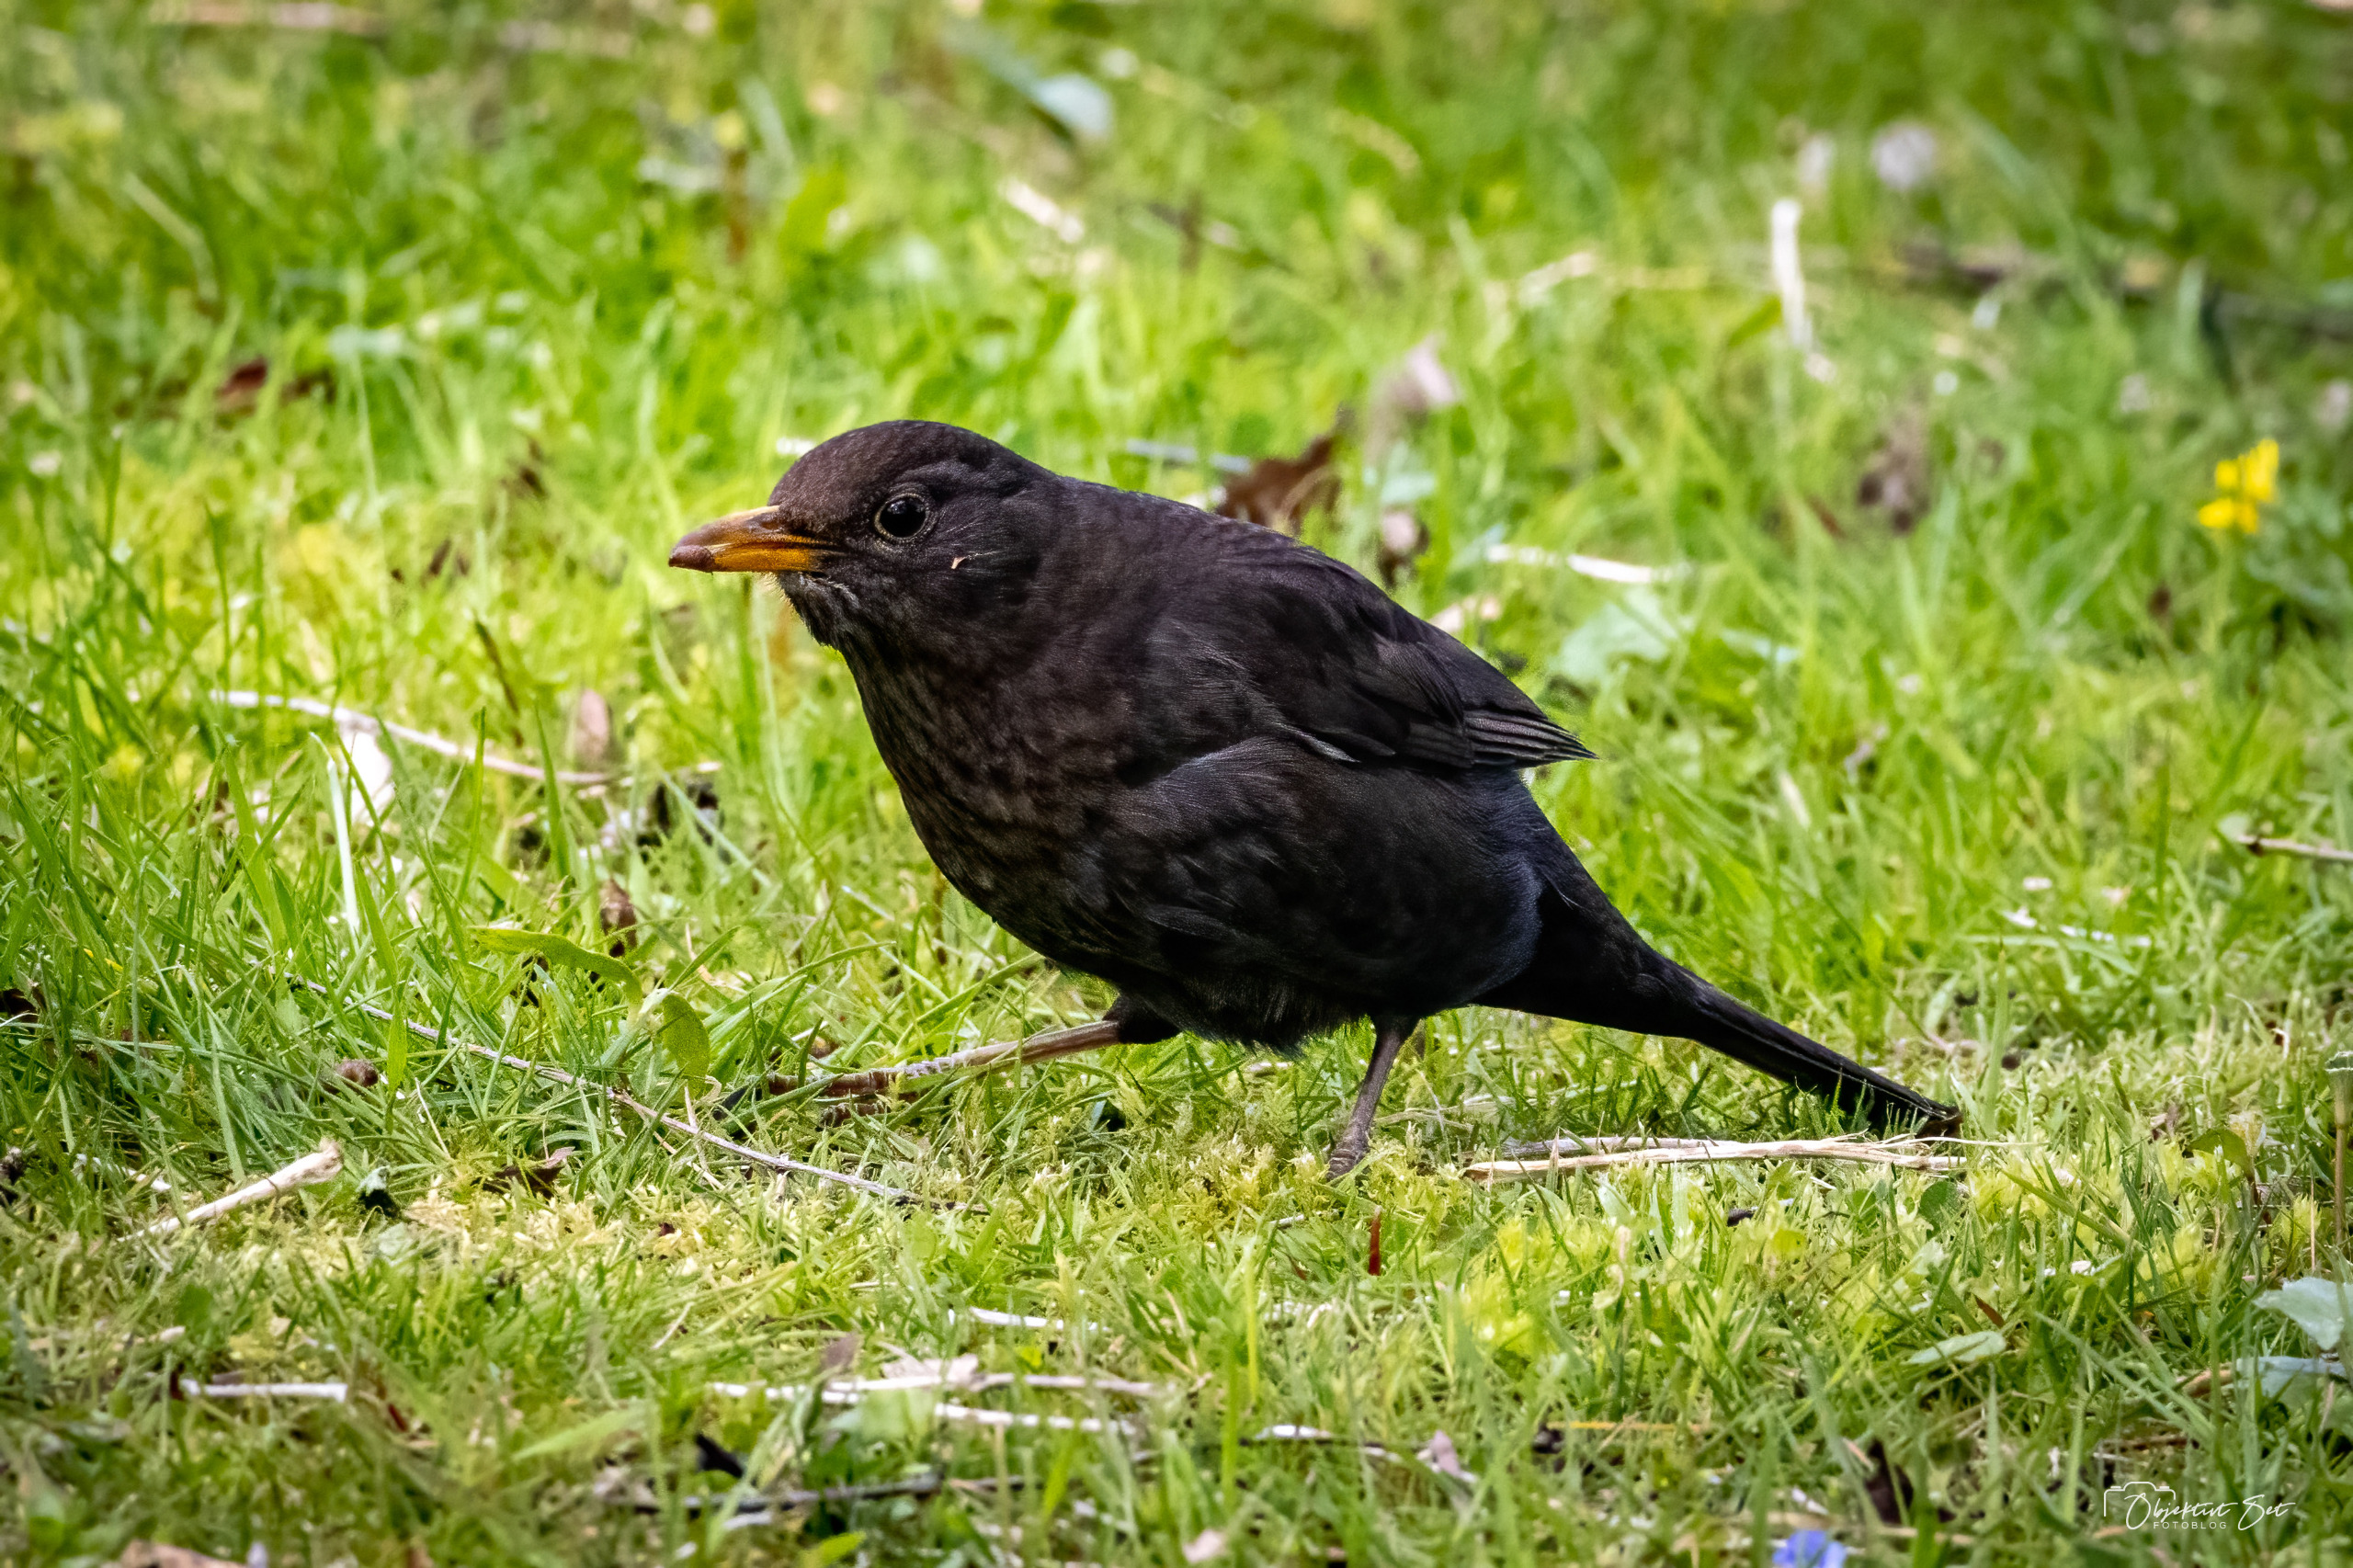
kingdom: Animalia
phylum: Chordata
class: Aves
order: Passeriformes
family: Turdidae
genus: Turdus
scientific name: Turdus merula
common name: Solsort
